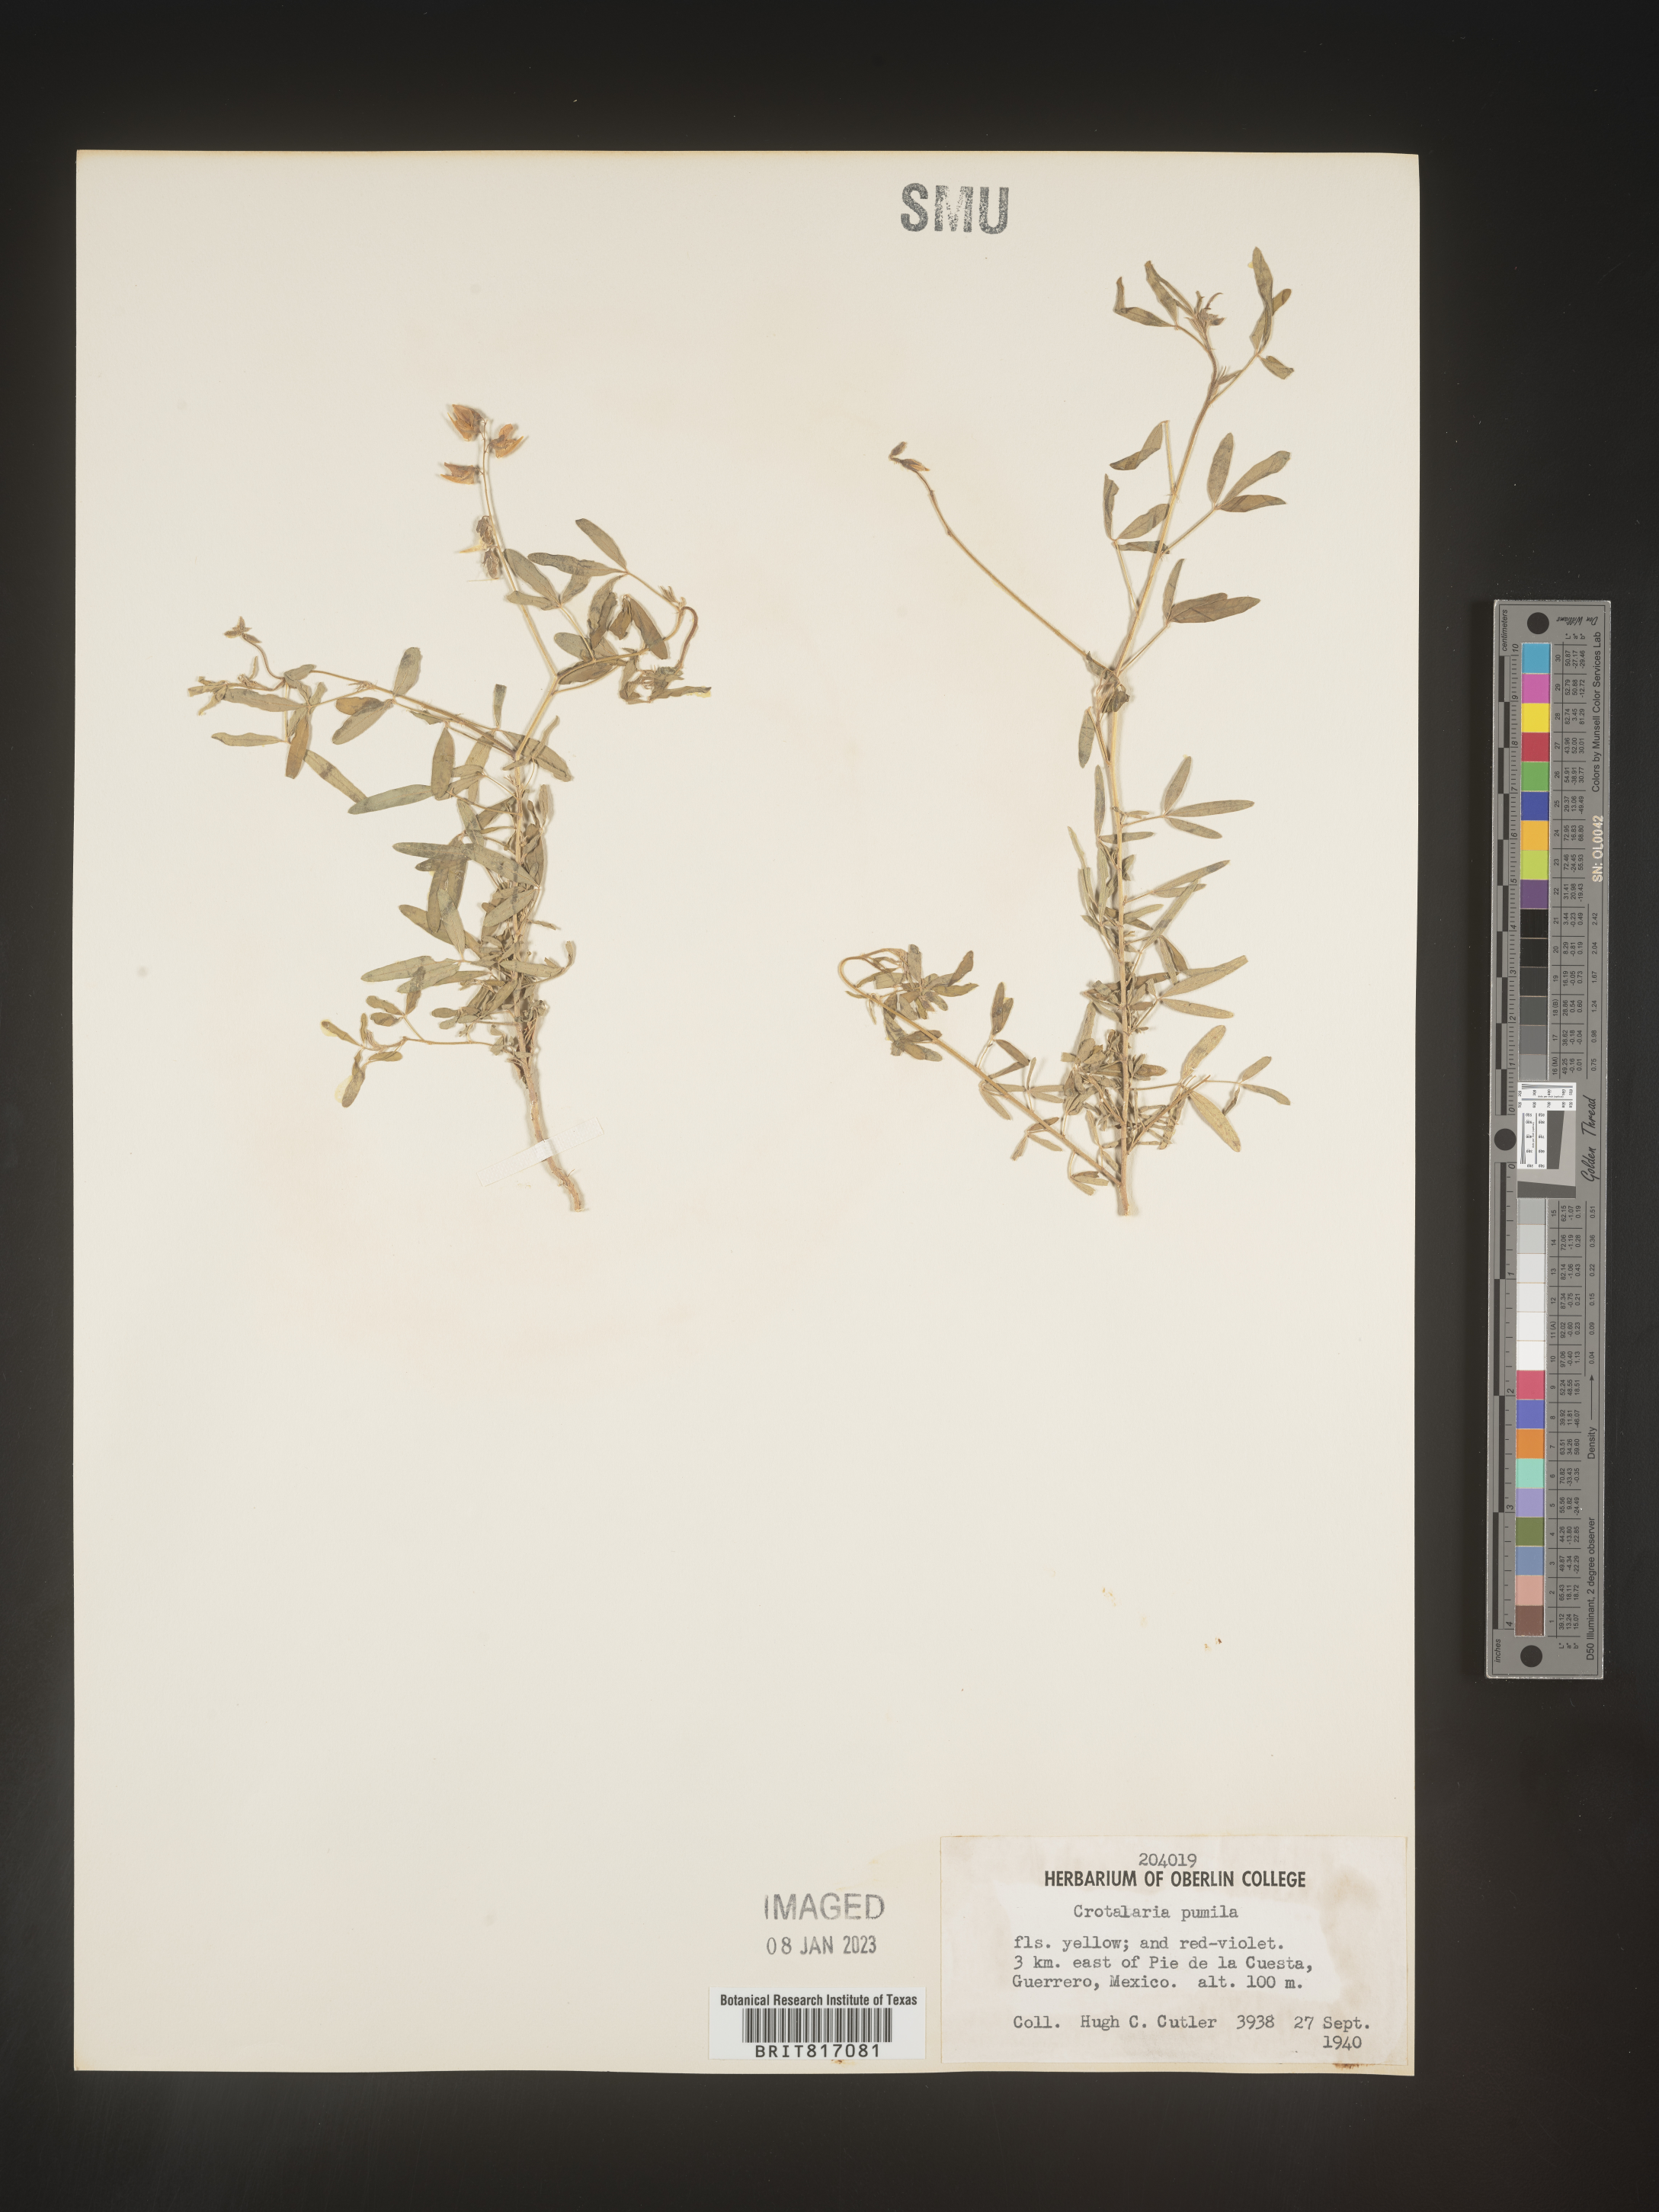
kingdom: Plantae
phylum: Tracheophyta
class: Magnoliopsida
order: Fabales
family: Fabaceae
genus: Crotalaria
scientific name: Crotalaria
